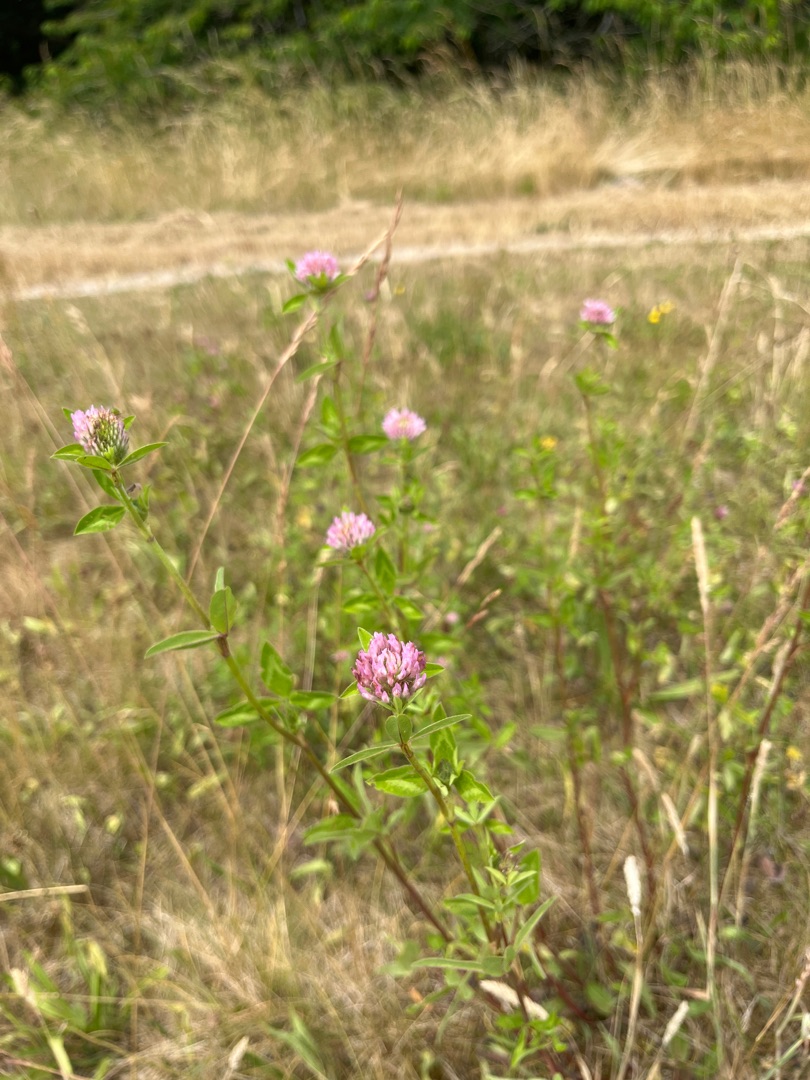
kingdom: Plantae
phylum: Tracheophyta
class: Magnoliopsida
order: Fabales
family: Fabaceae
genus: Trifolium
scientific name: Trifolium pratense
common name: Rød-kløver
